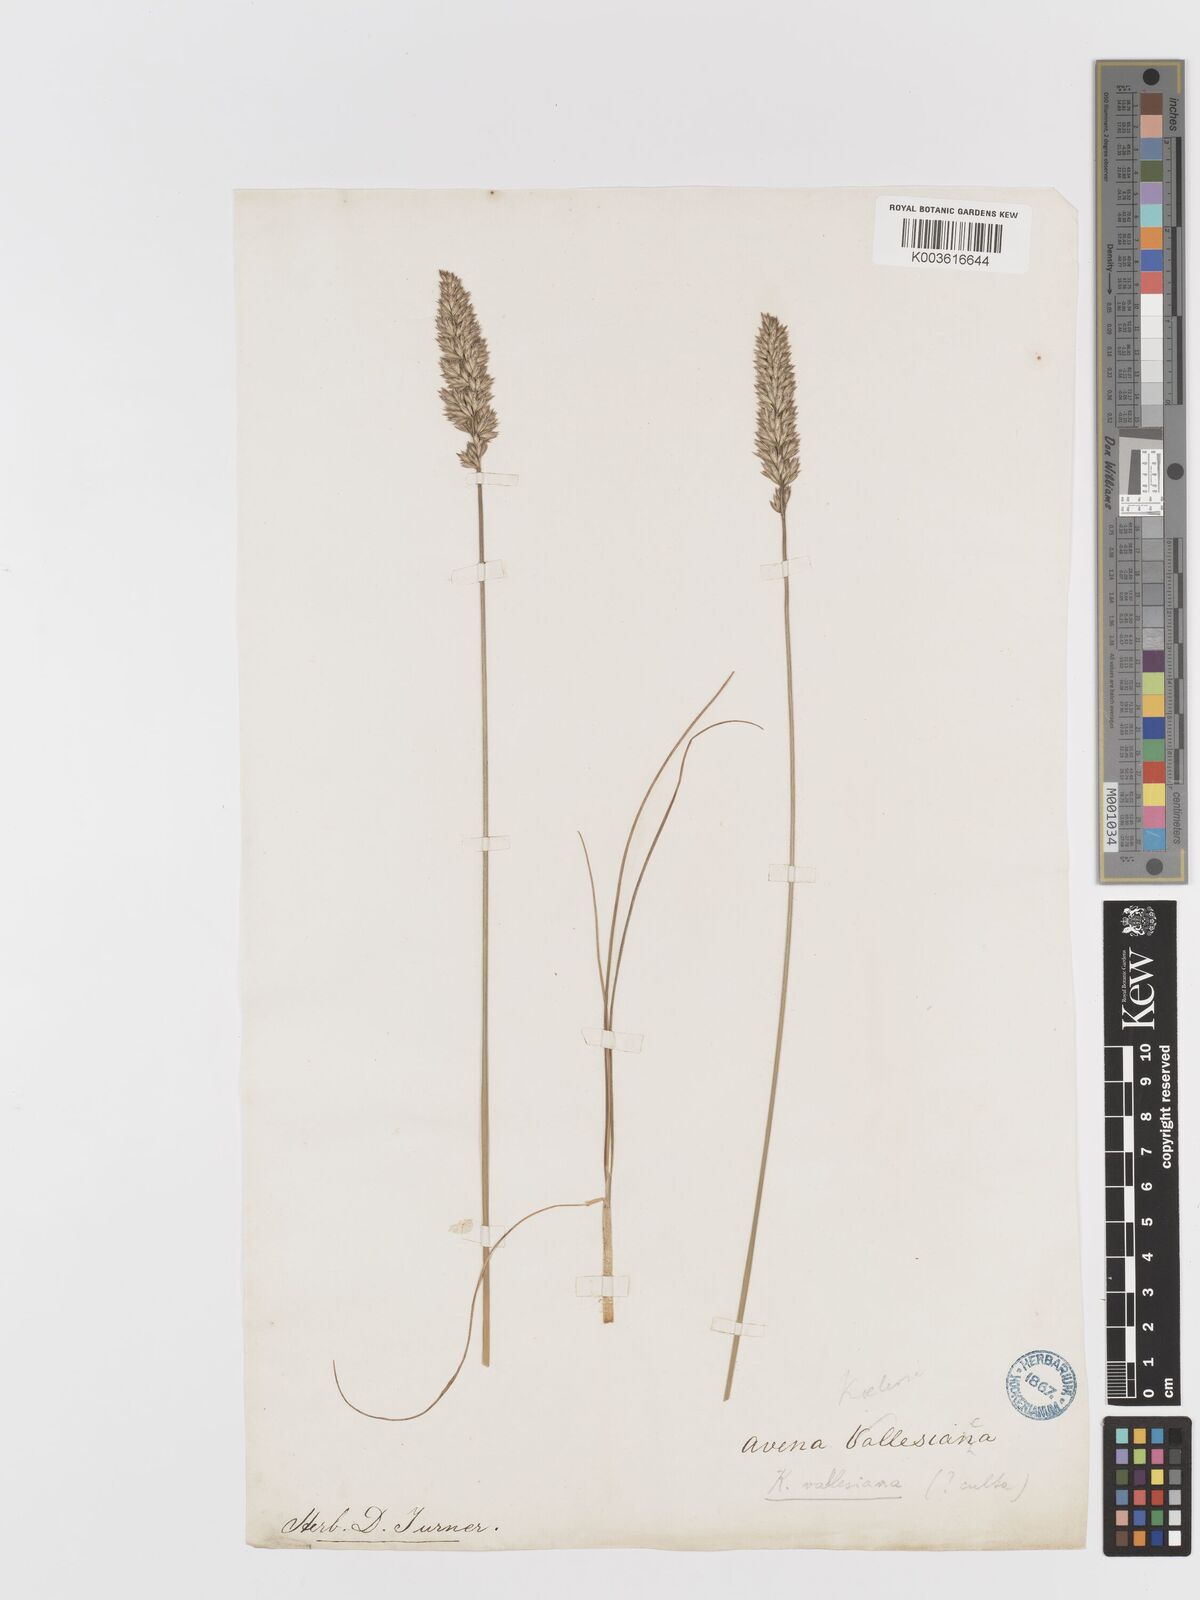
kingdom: Plantae
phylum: Tracheophyta
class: Liliopsida
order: Poales
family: Poaceae
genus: Koeleria
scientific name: Koeleria vallesiana
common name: Somerset hair-grass
